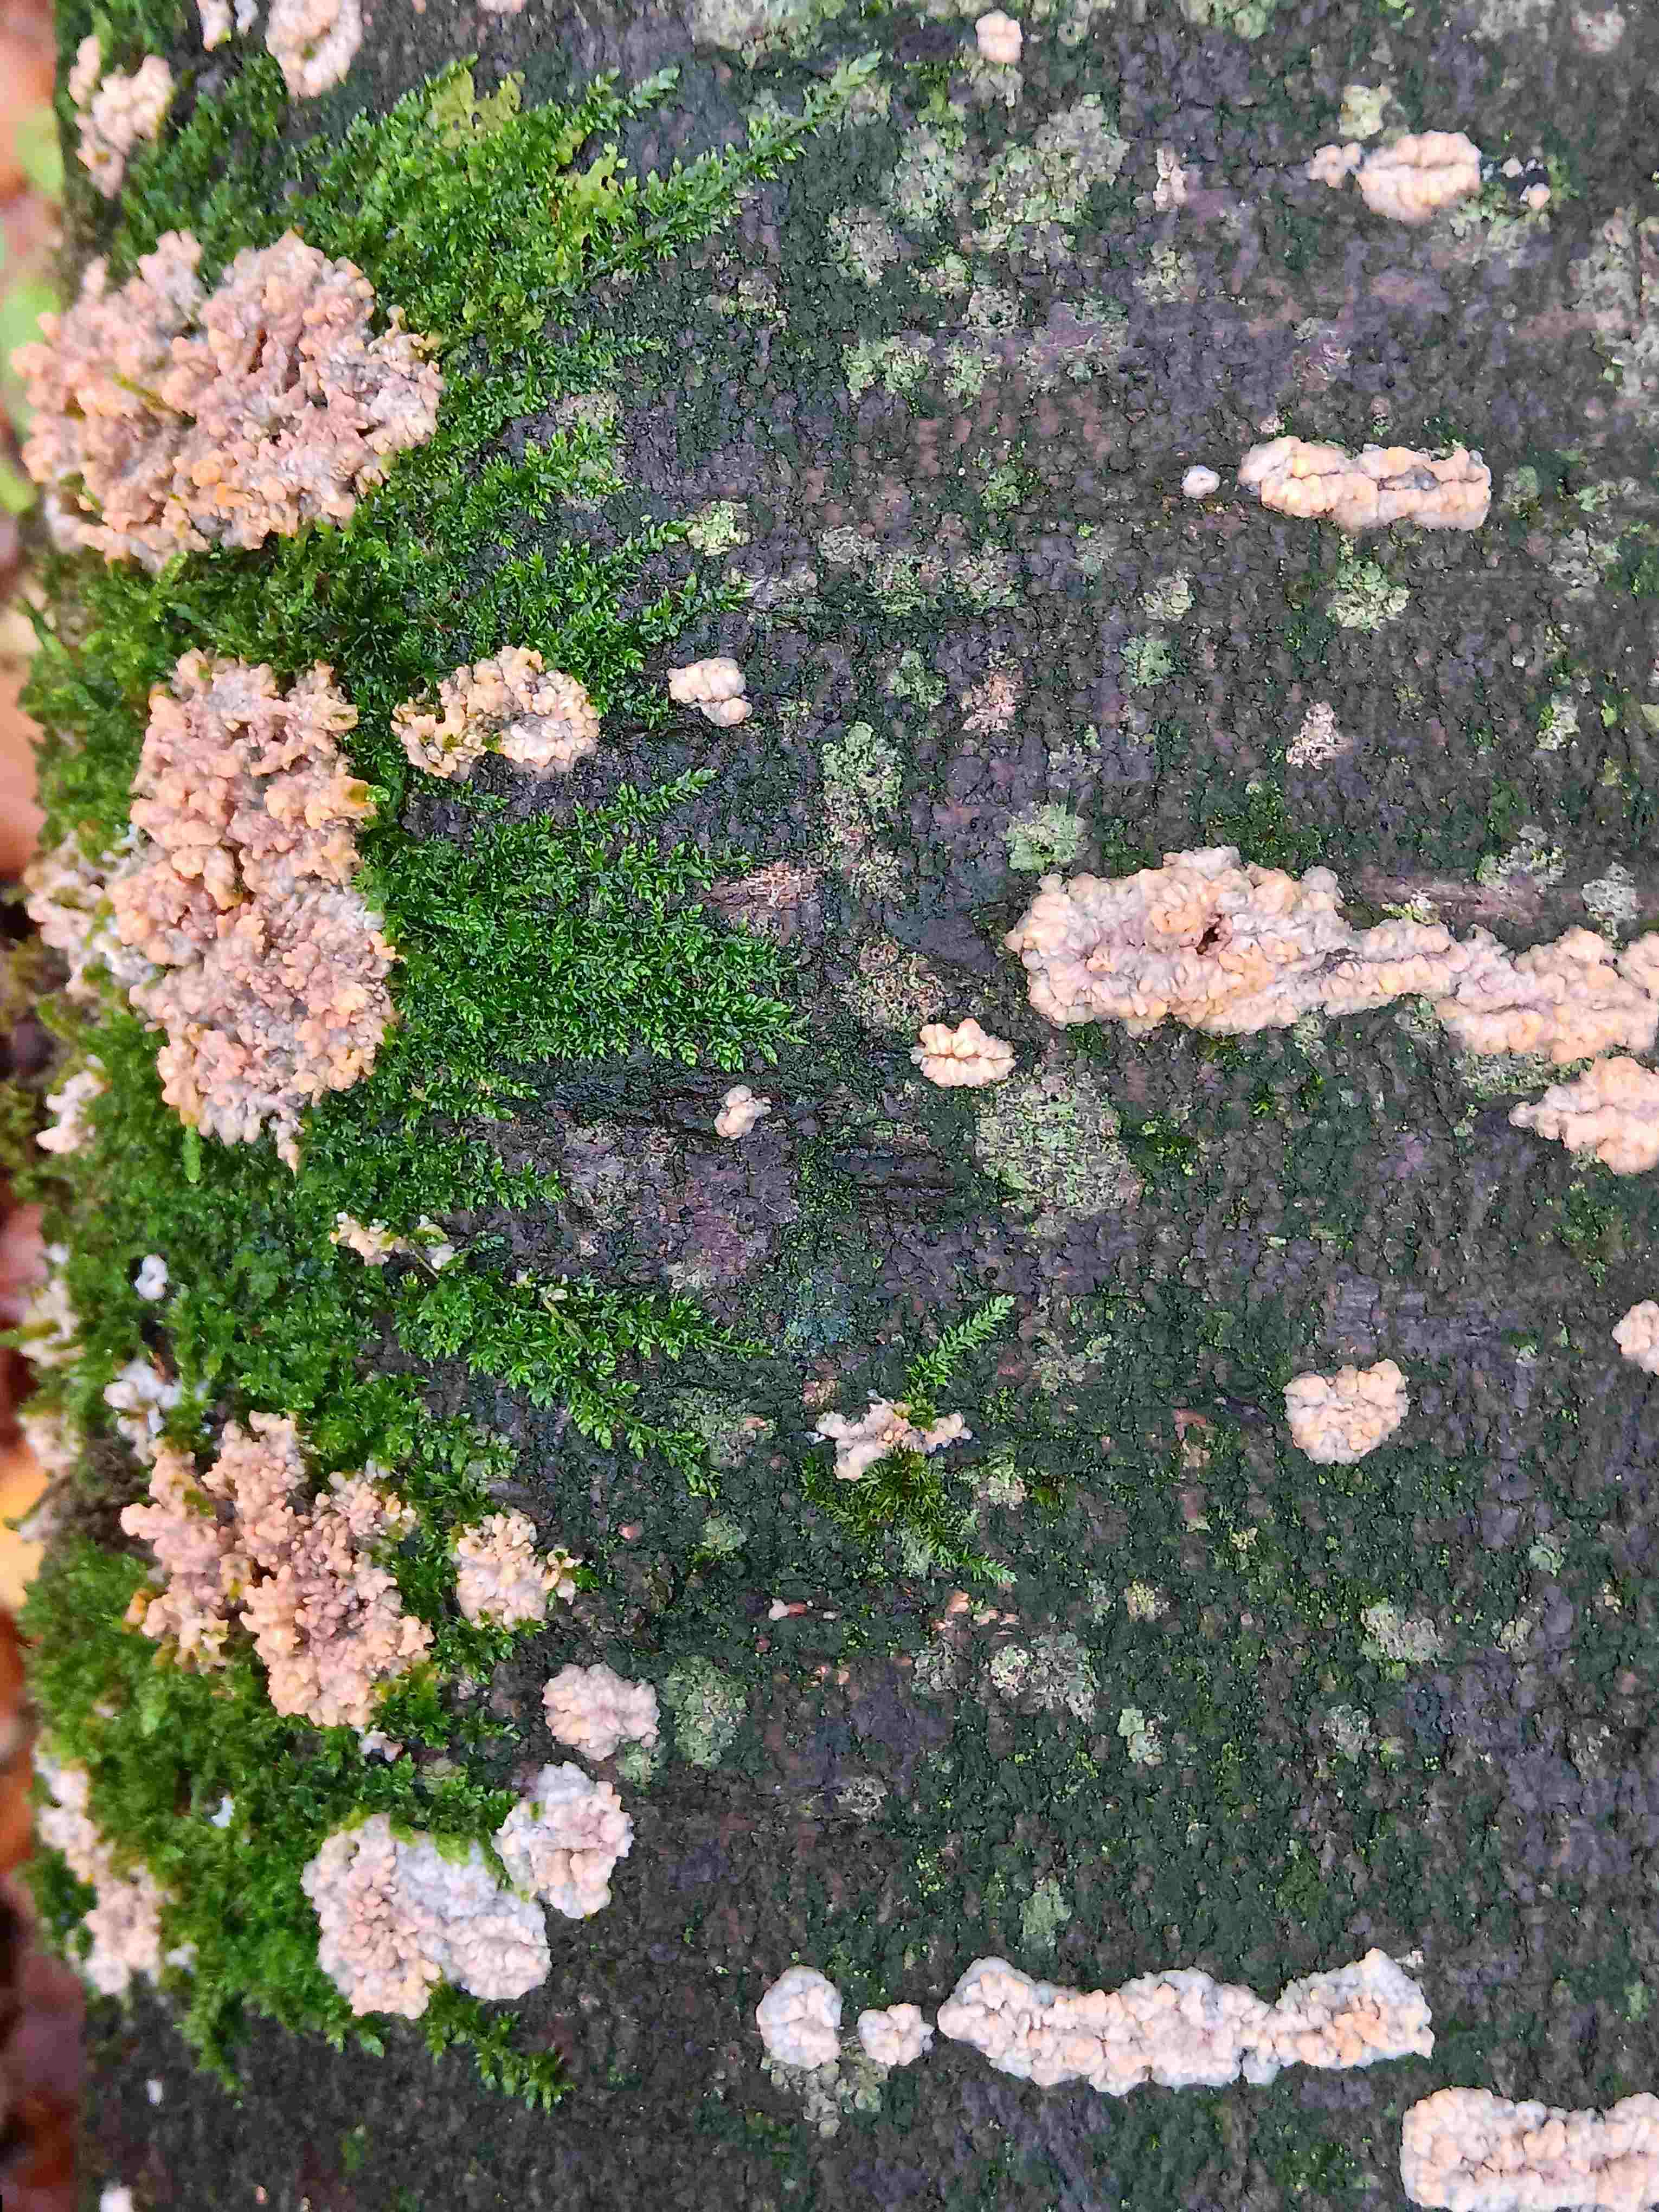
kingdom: Fungi
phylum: Basidiomycota
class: Agaricomycetes
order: Polyporales
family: Meruliaceae
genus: Phlebia
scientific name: Phlebia radiata
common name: stråle-åresvamp
